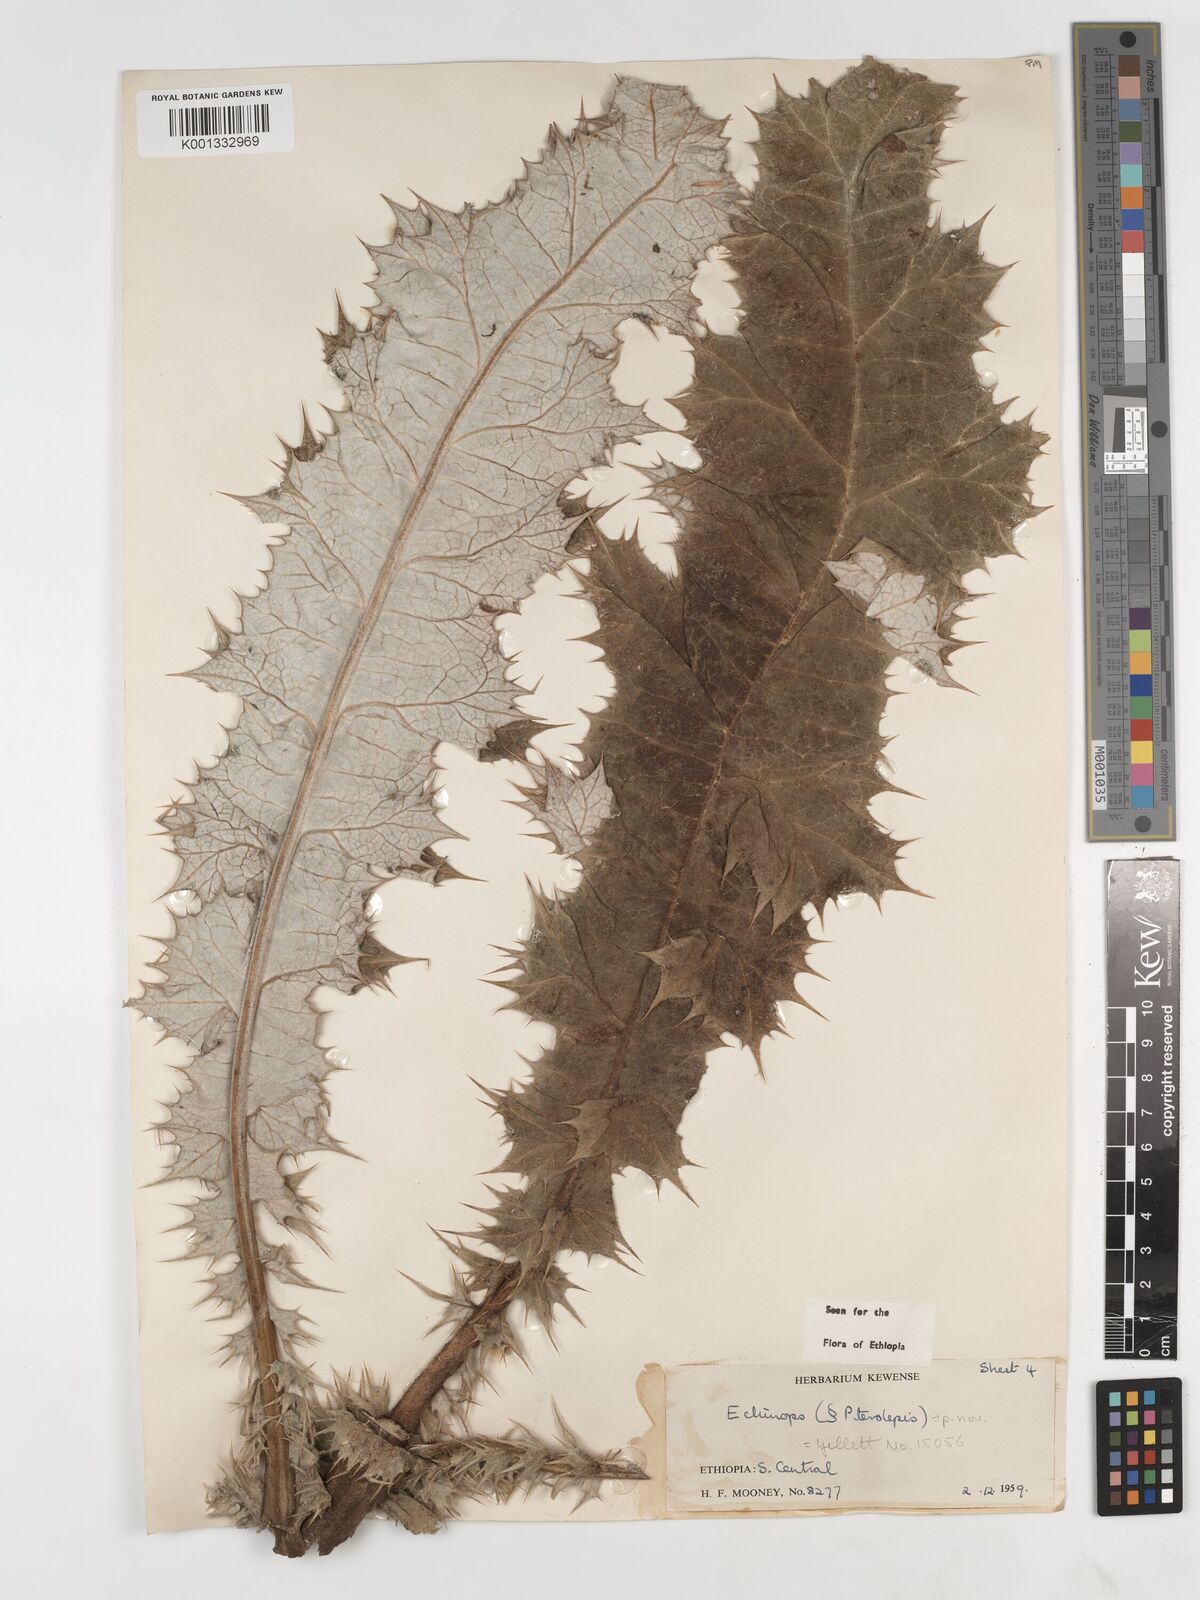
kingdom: Plantae
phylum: Tracheophyta
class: Magnoliopsida
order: Asterales
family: Asteraceae
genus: Echinops
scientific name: Echinops longisetus
